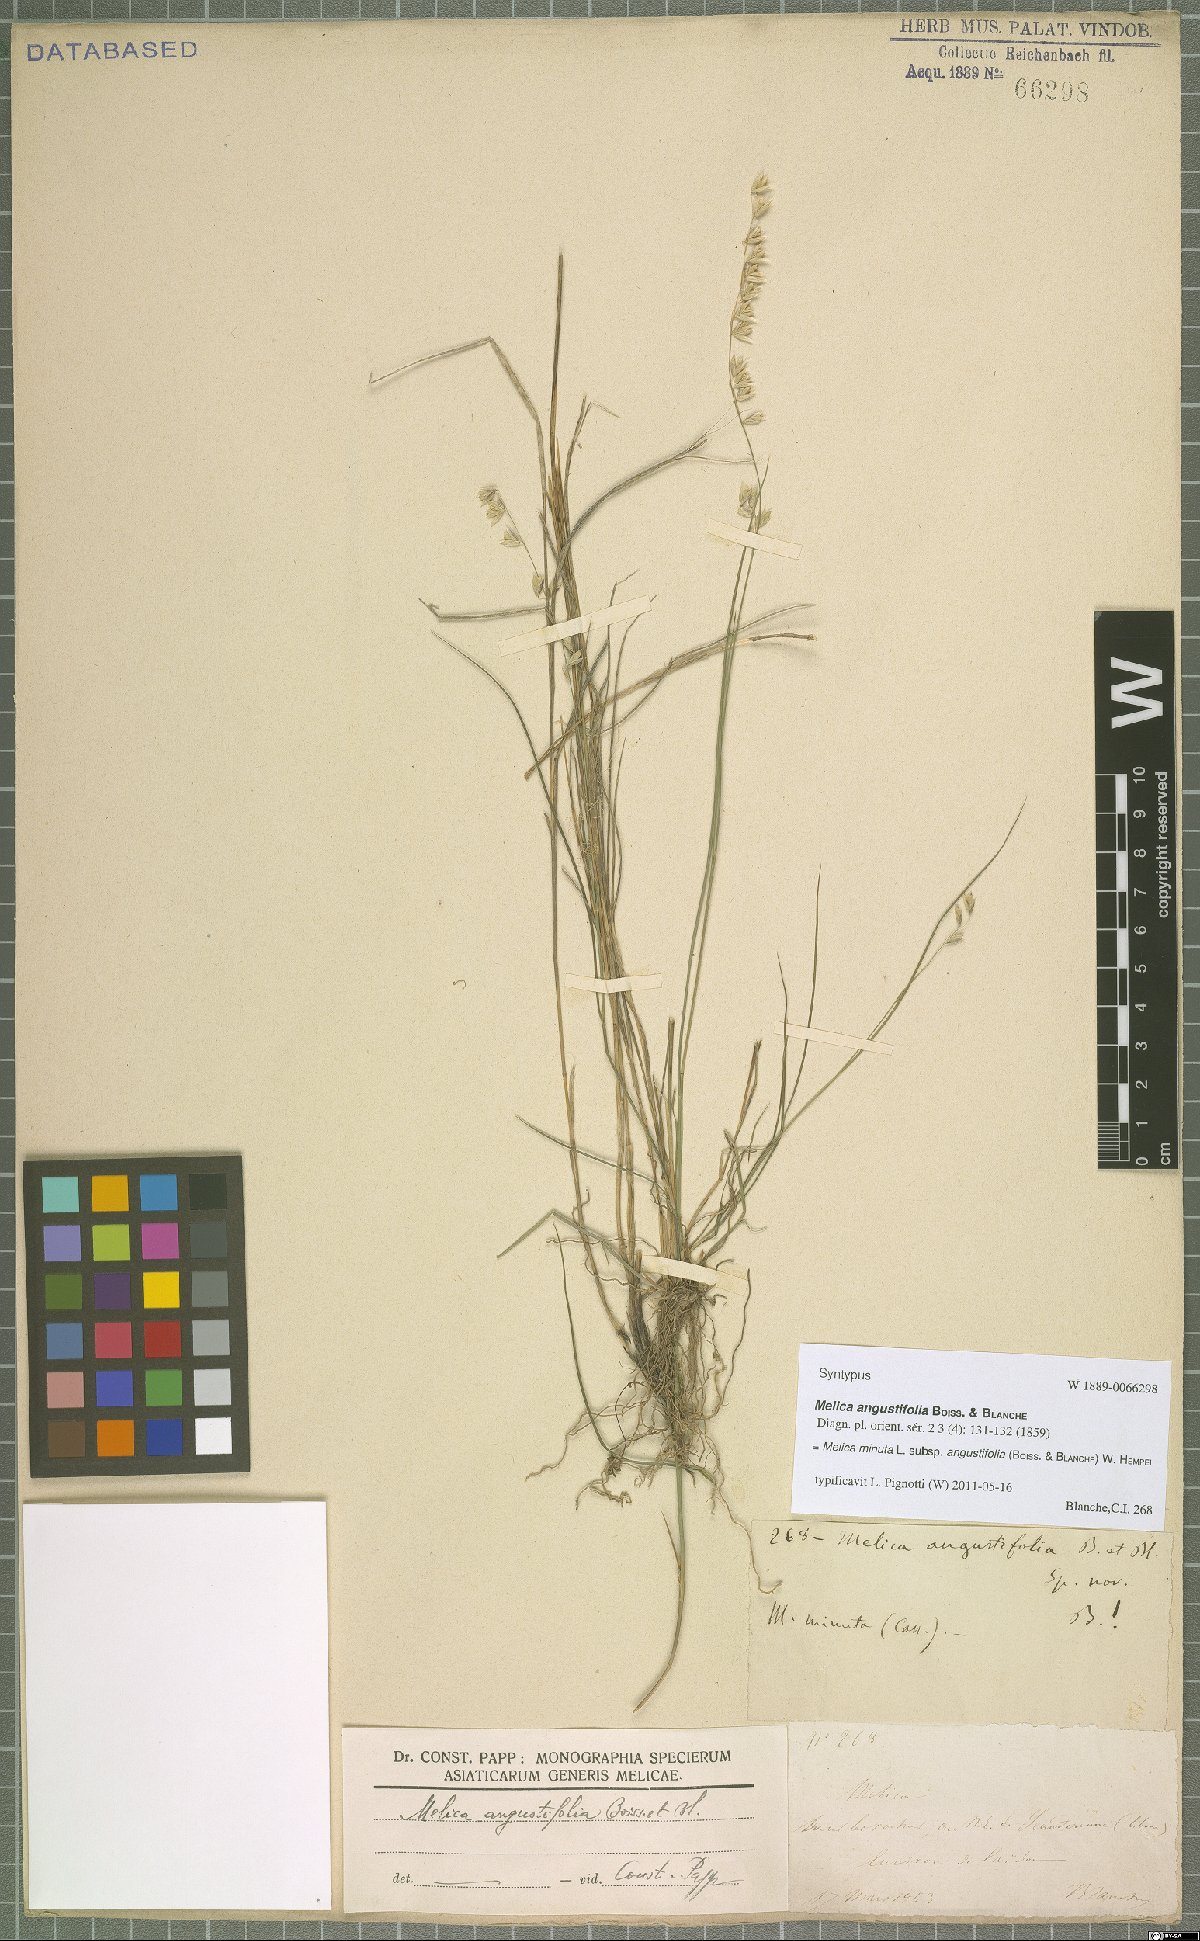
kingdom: Plantae
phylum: Tracheophyta
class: Liliopsida
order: Poales
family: Poaceae
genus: Melica
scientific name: Melica eligulata
